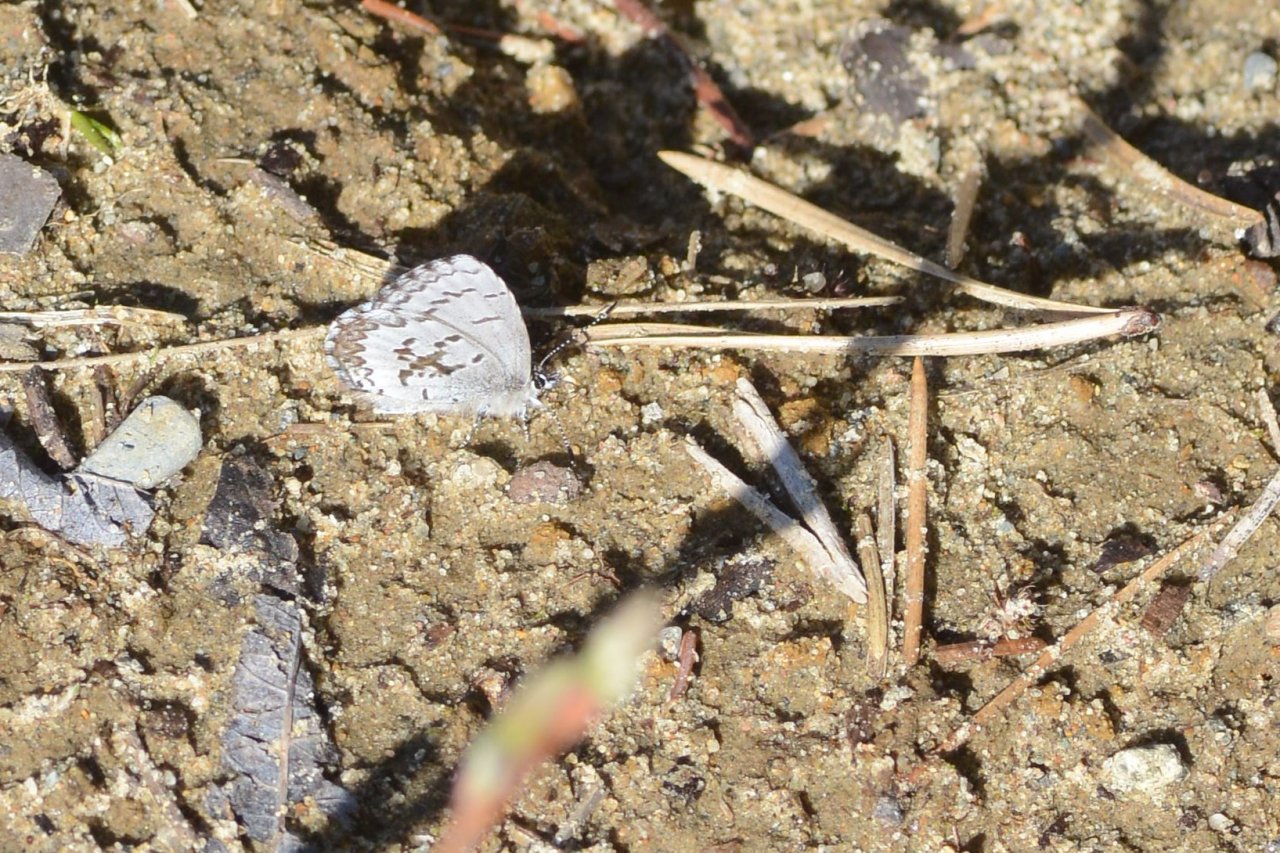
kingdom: Animalia
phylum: Arthropoda
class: Insecta
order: Lepidoptera
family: Lycaenidae
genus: Celastrina
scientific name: Celastrina lucia
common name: Northern Spring Azure
